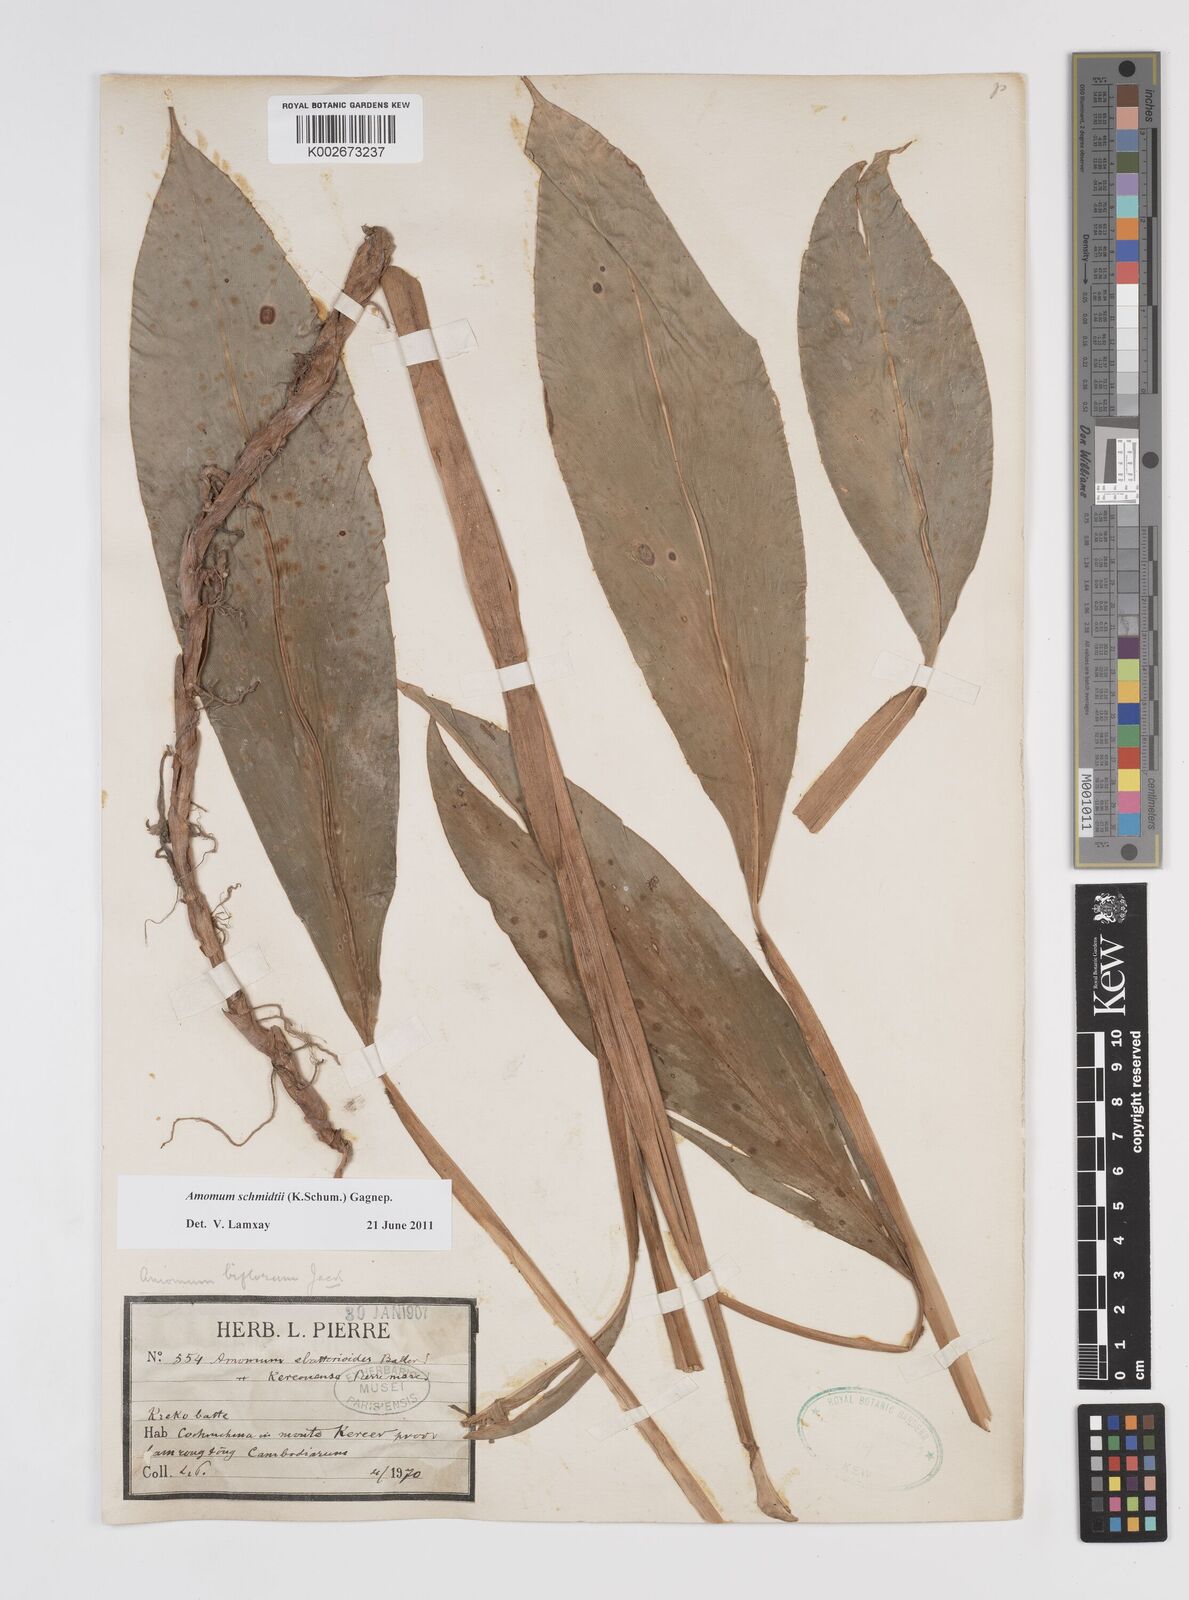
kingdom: Plantae
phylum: Tracheophyta
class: Liliopsida
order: Zingiberales
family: Zingiberaceae
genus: Wurfbainia
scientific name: Wurfbainia schmidtii
